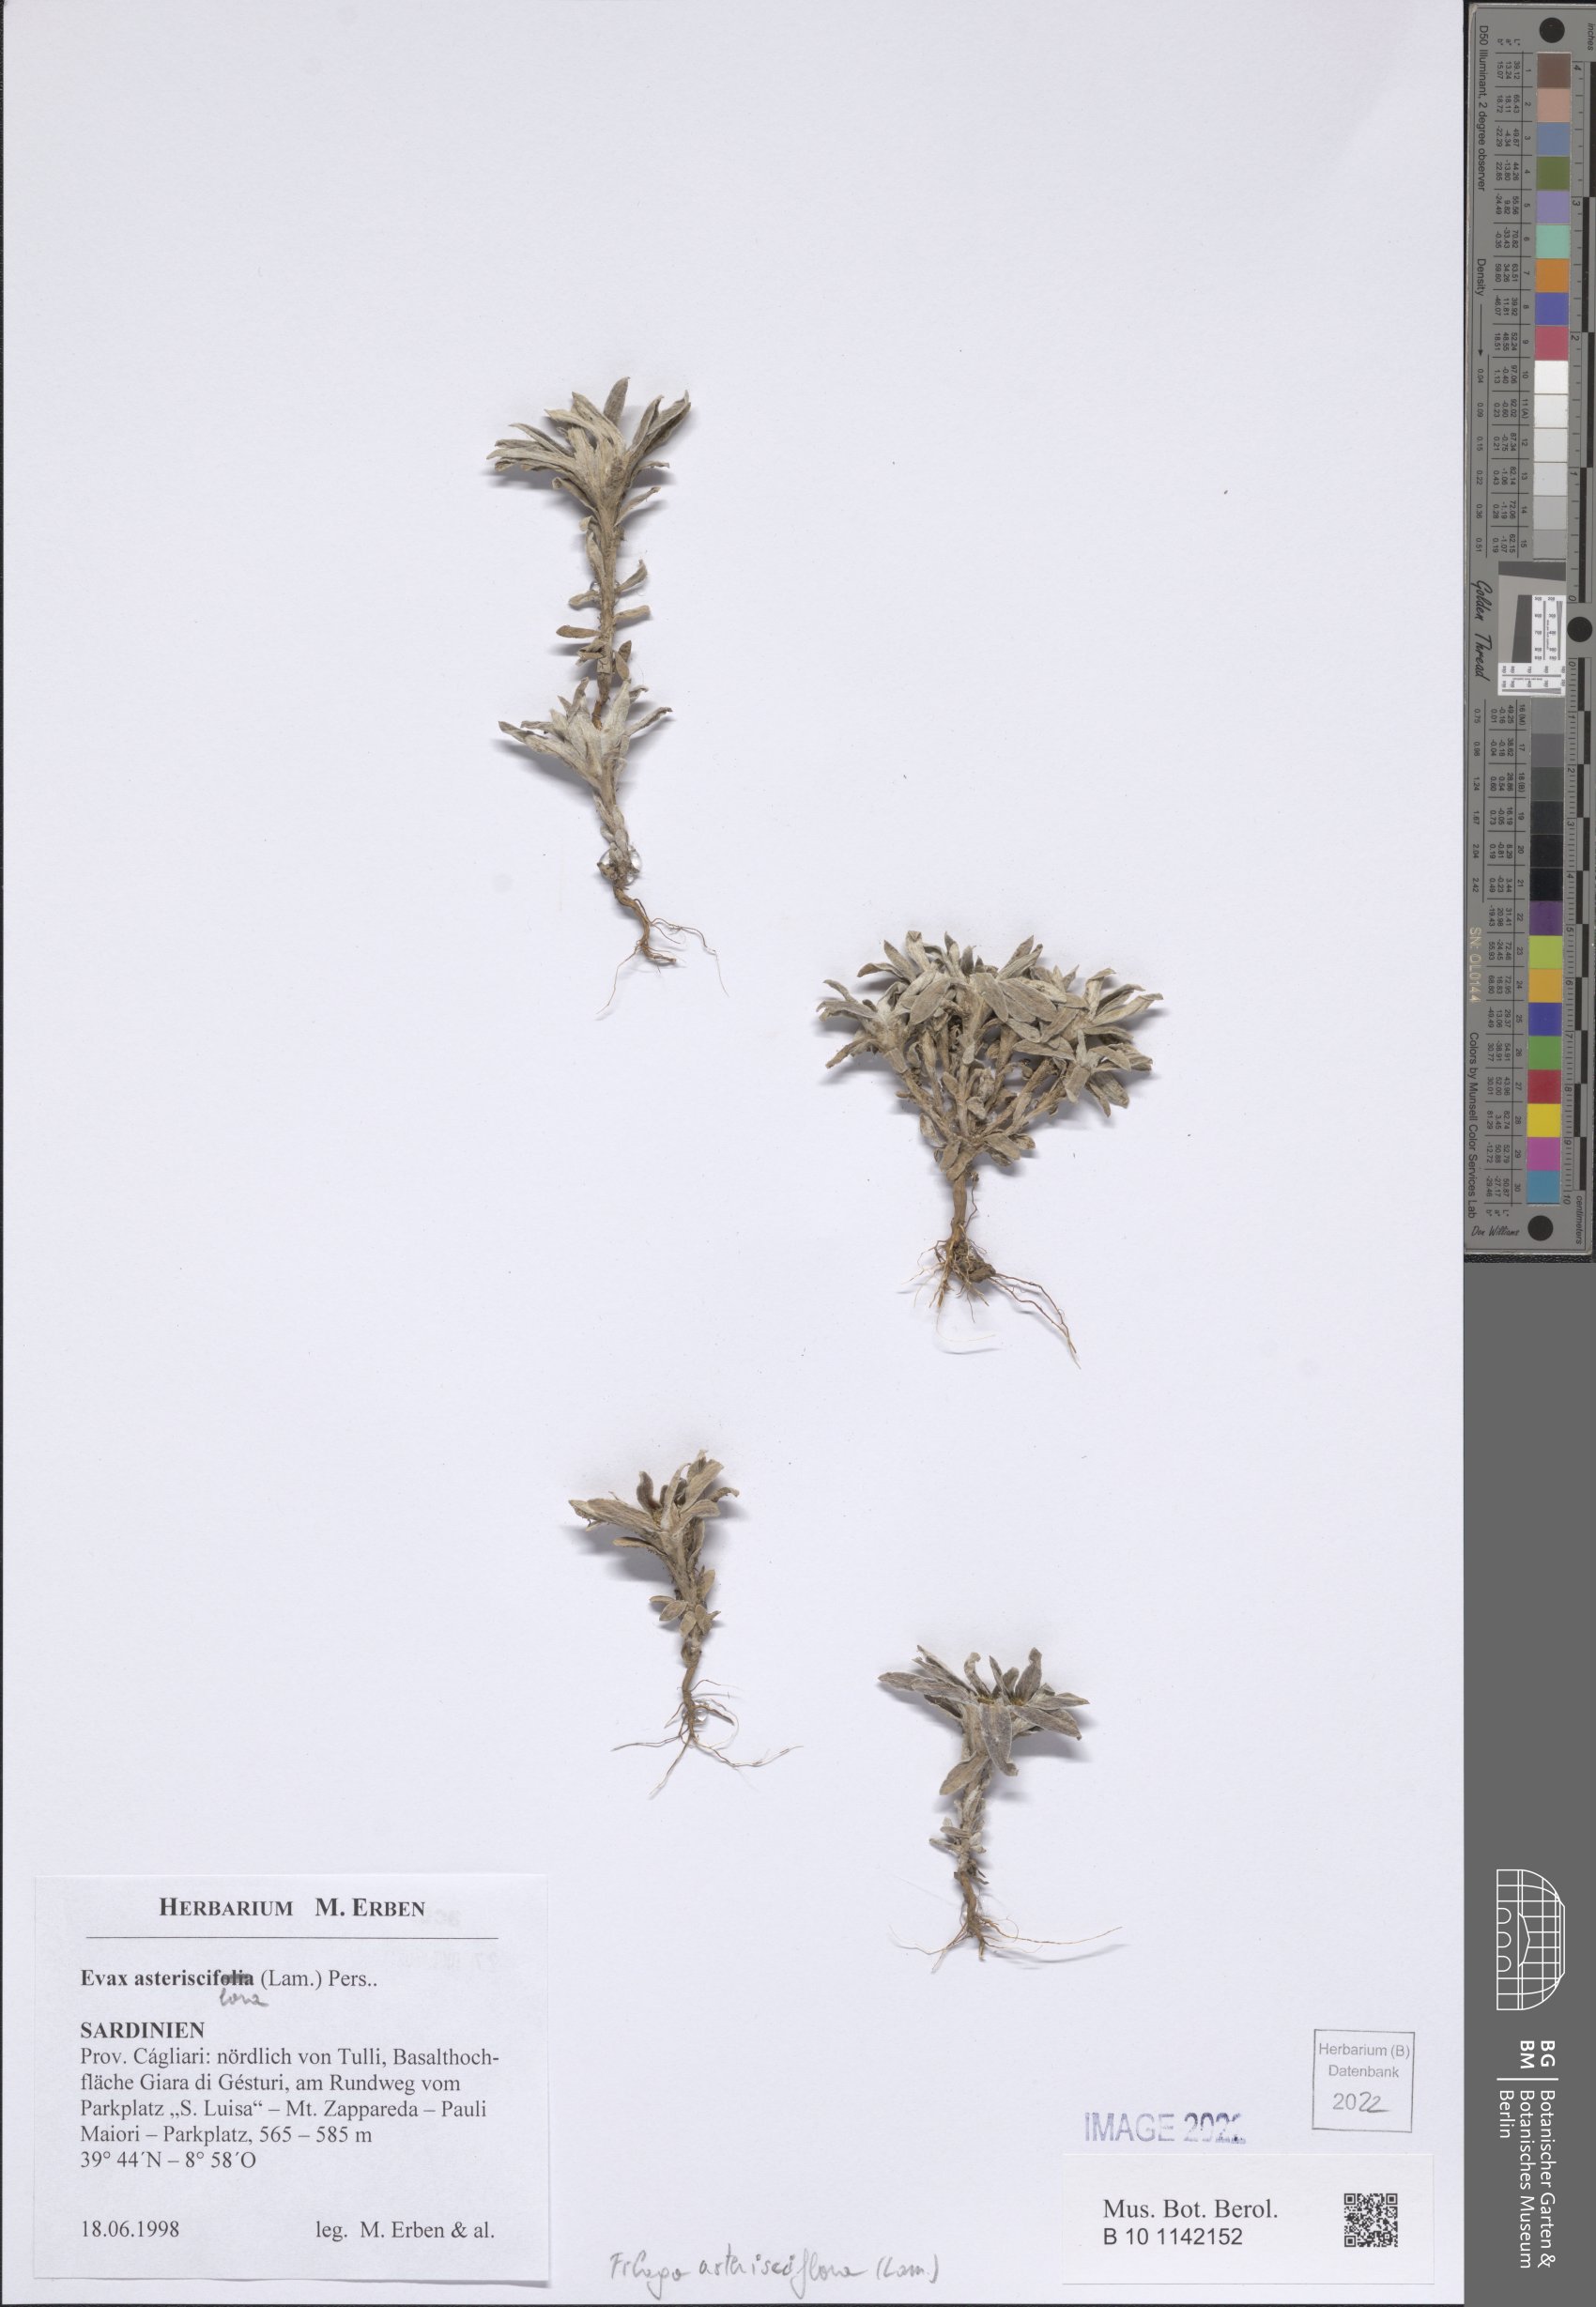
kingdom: Plantae
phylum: Tracheophyta
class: Magnoliopsida
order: Asterales
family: Asteraceae
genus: Filago
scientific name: Filago asterisciflora
